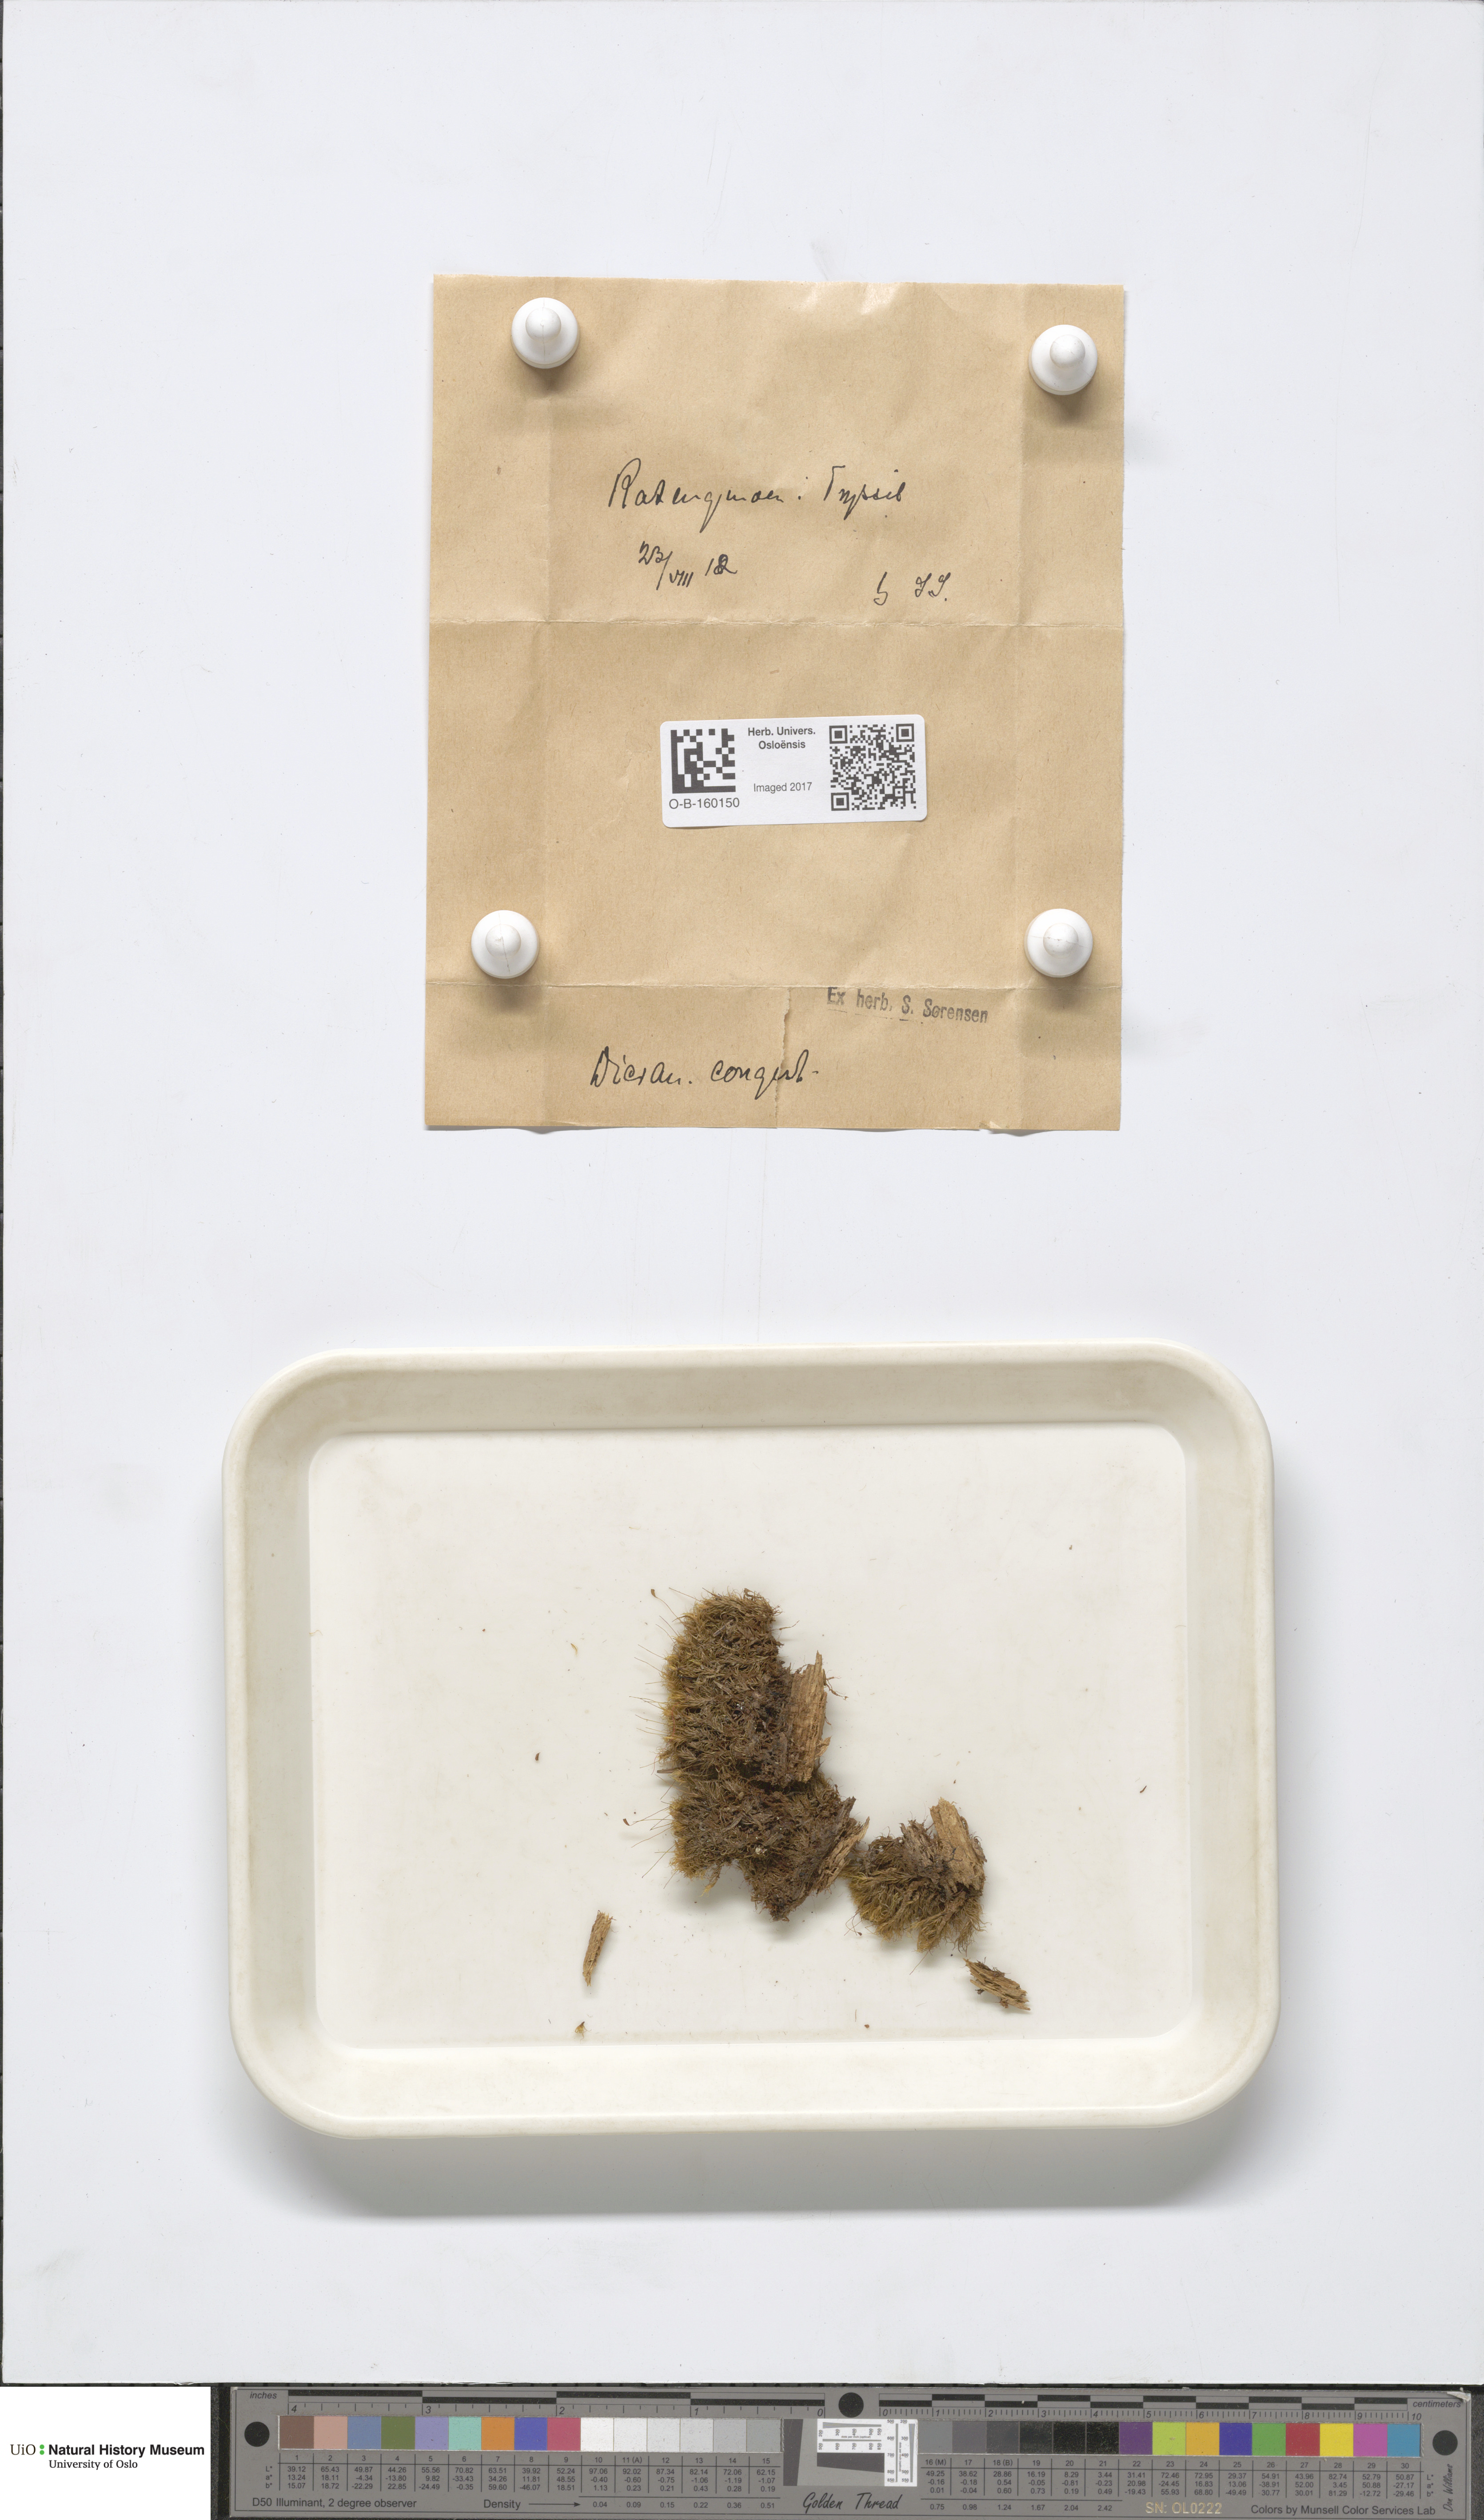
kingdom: Plantae
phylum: Bryophyta
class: Bryopsida
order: Dicranales
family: Dicranaceae
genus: Dicranum
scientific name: Dicranum flexicaule
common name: Bendy heron s-bill moss
